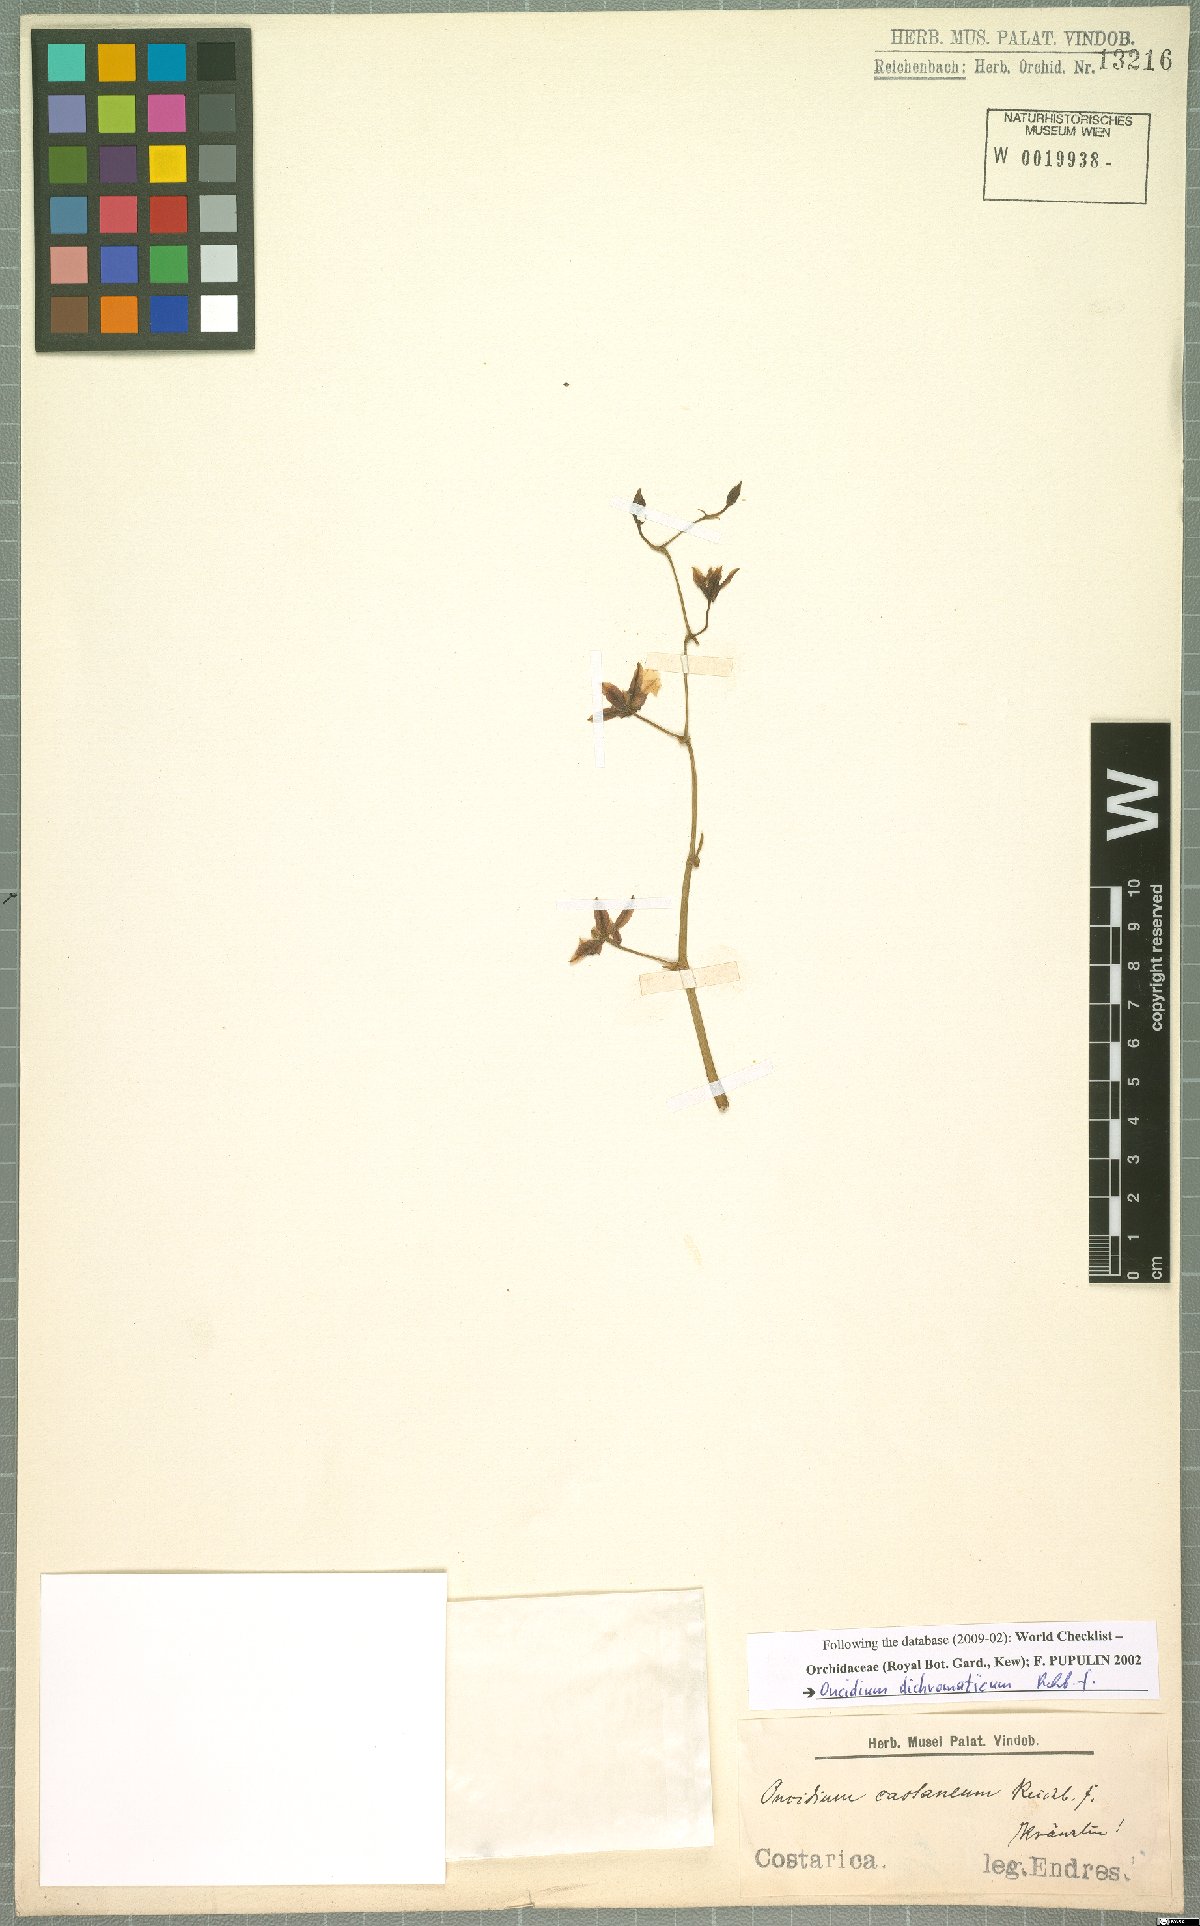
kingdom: Plantae
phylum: Tracheophyta
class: Liliopsida
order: Asparagales
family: Orchidaceae
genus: Oncidium
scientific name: Oncidium dichromaticum
